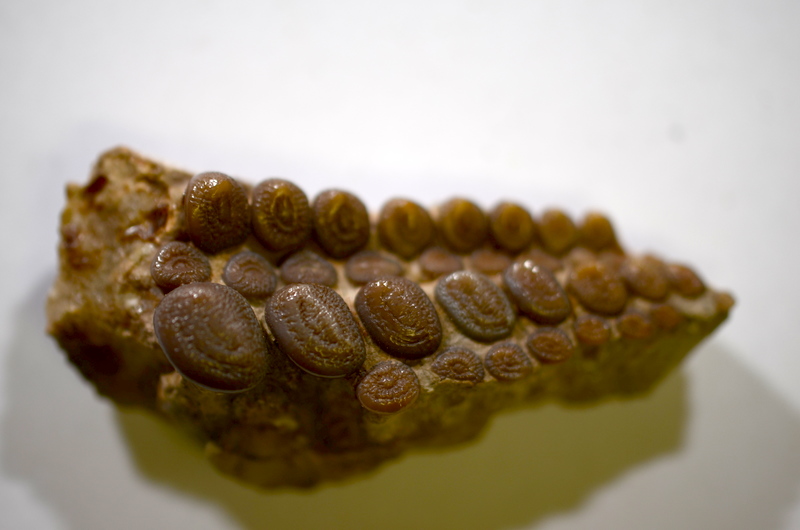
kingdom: Animalia
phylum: Chordata
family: Gyrodontidae
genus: Gyrodus
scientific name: Gyrodus hexagonus
